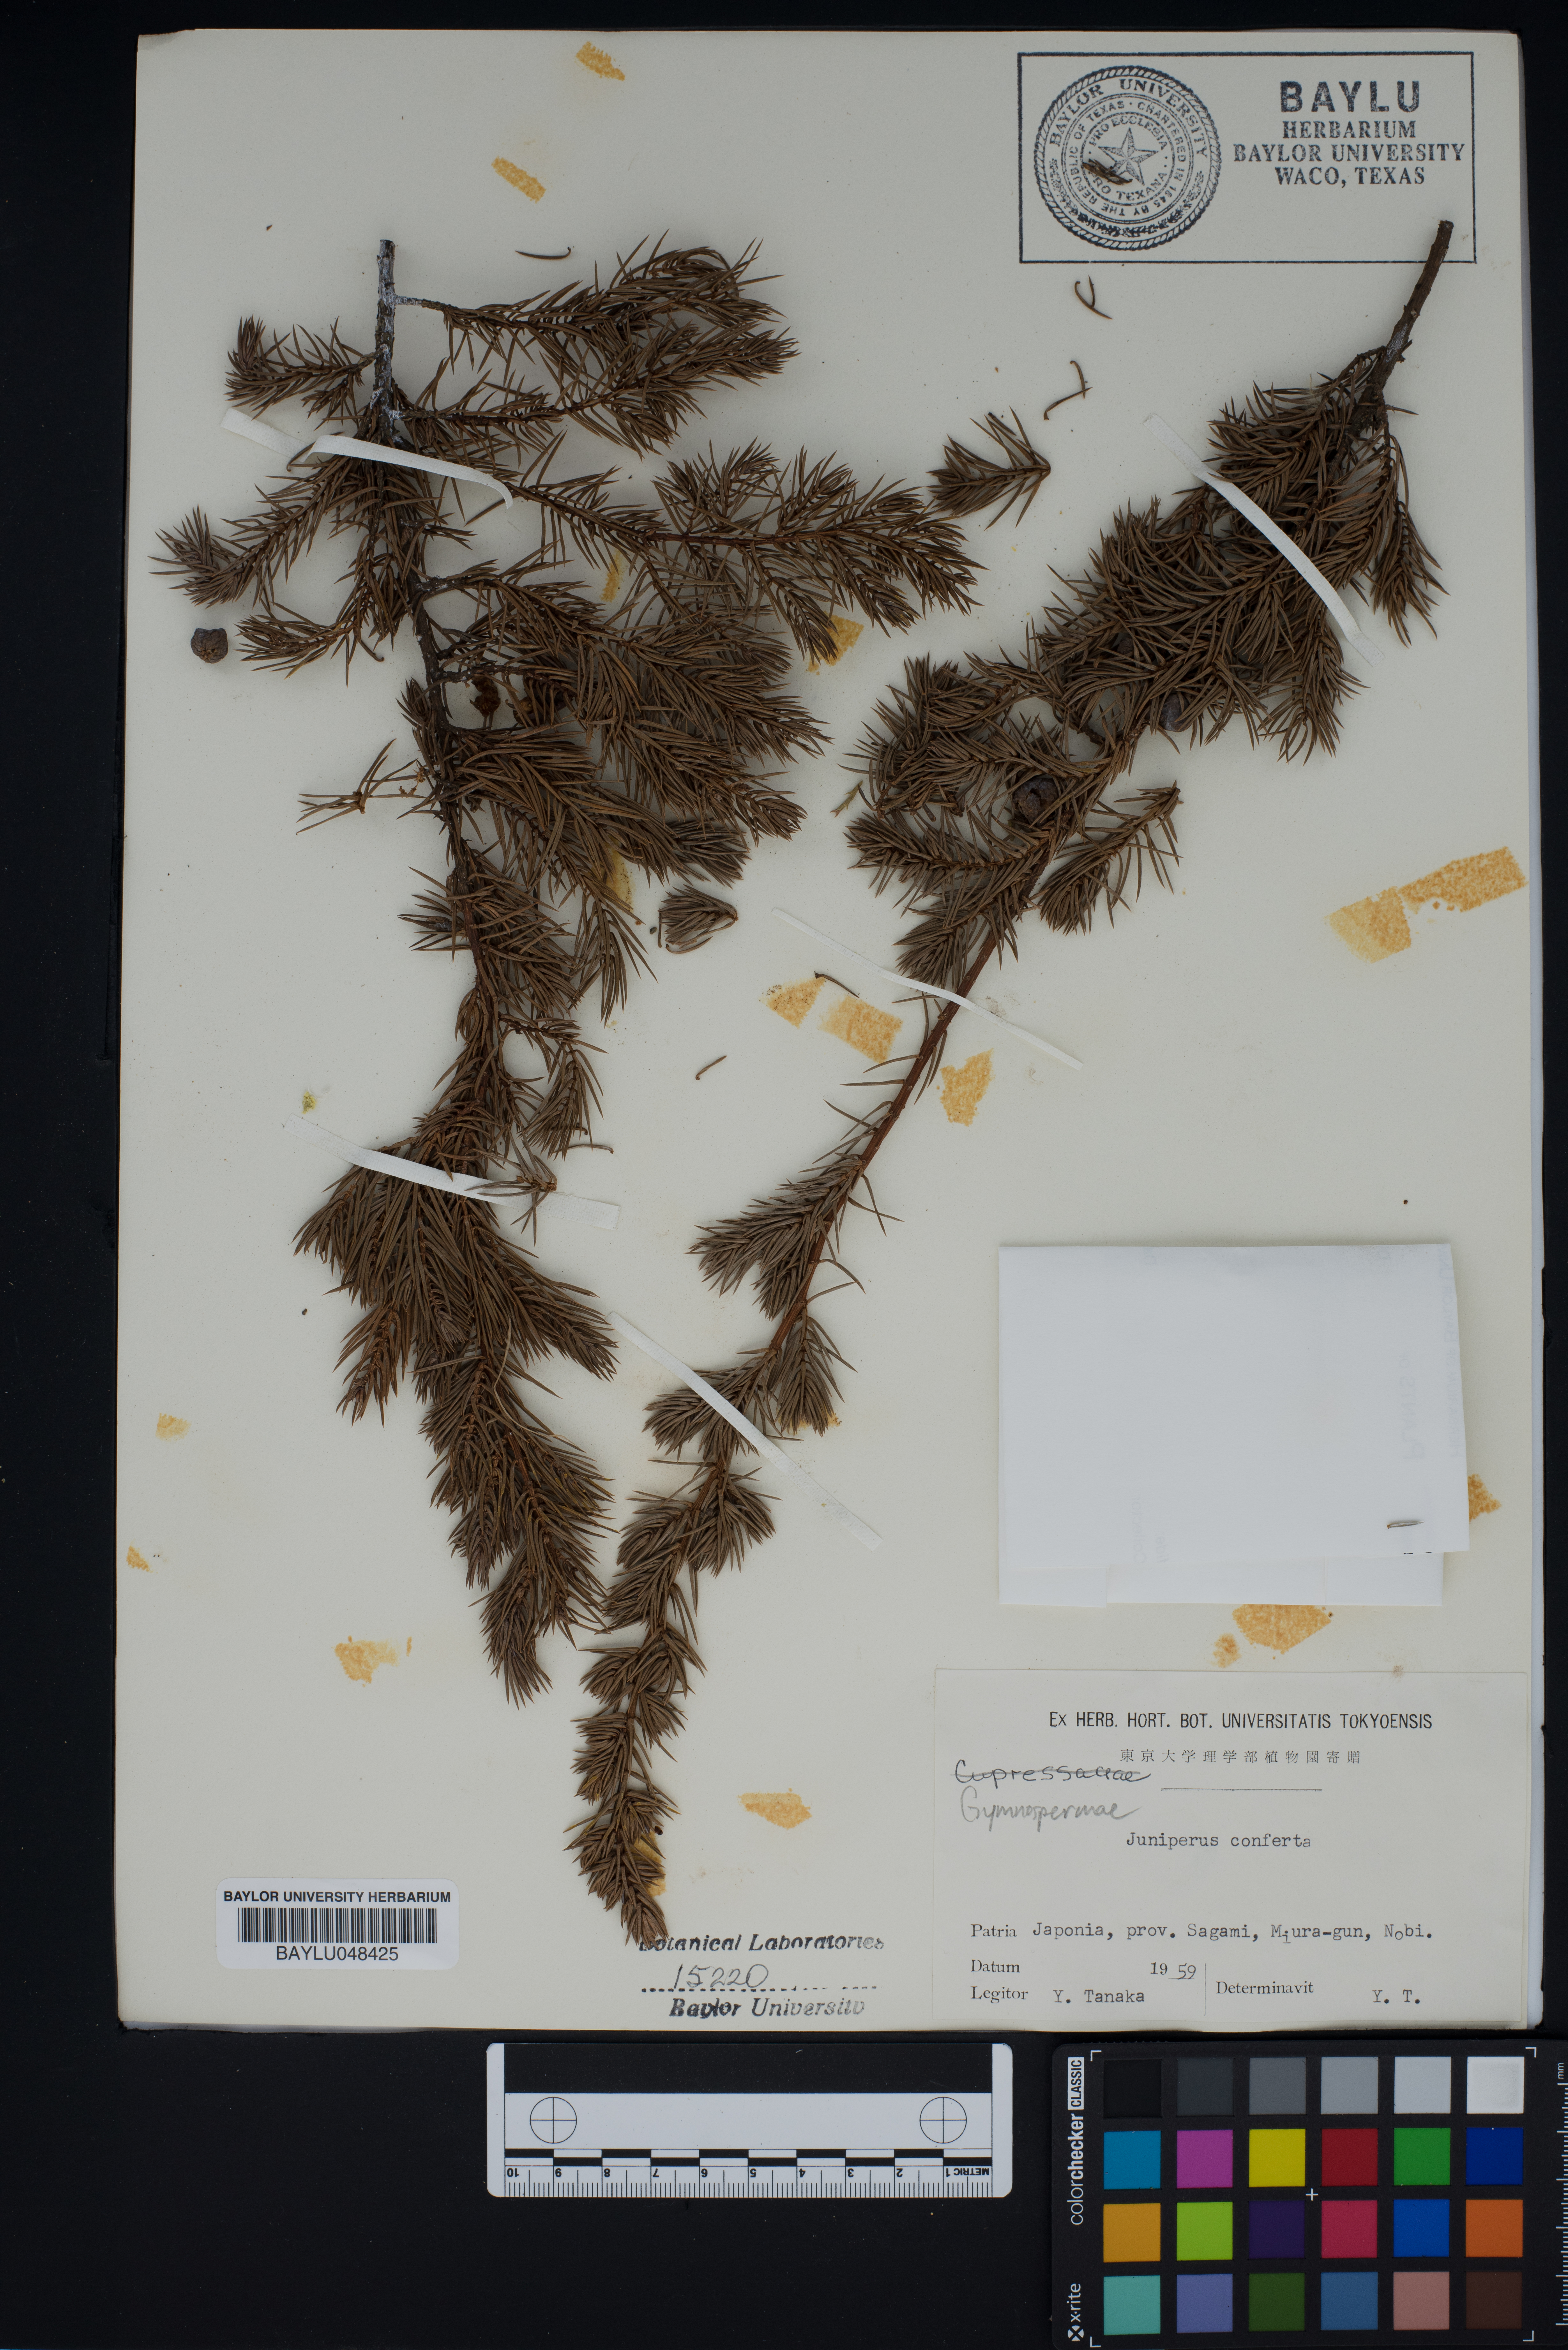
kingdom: Plantae
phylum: Tracheophyta
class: Pinopsida
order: Pinales
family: Cupressaceae
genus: Juniperus
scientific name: Juniperus rigida
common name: Needle juniper
